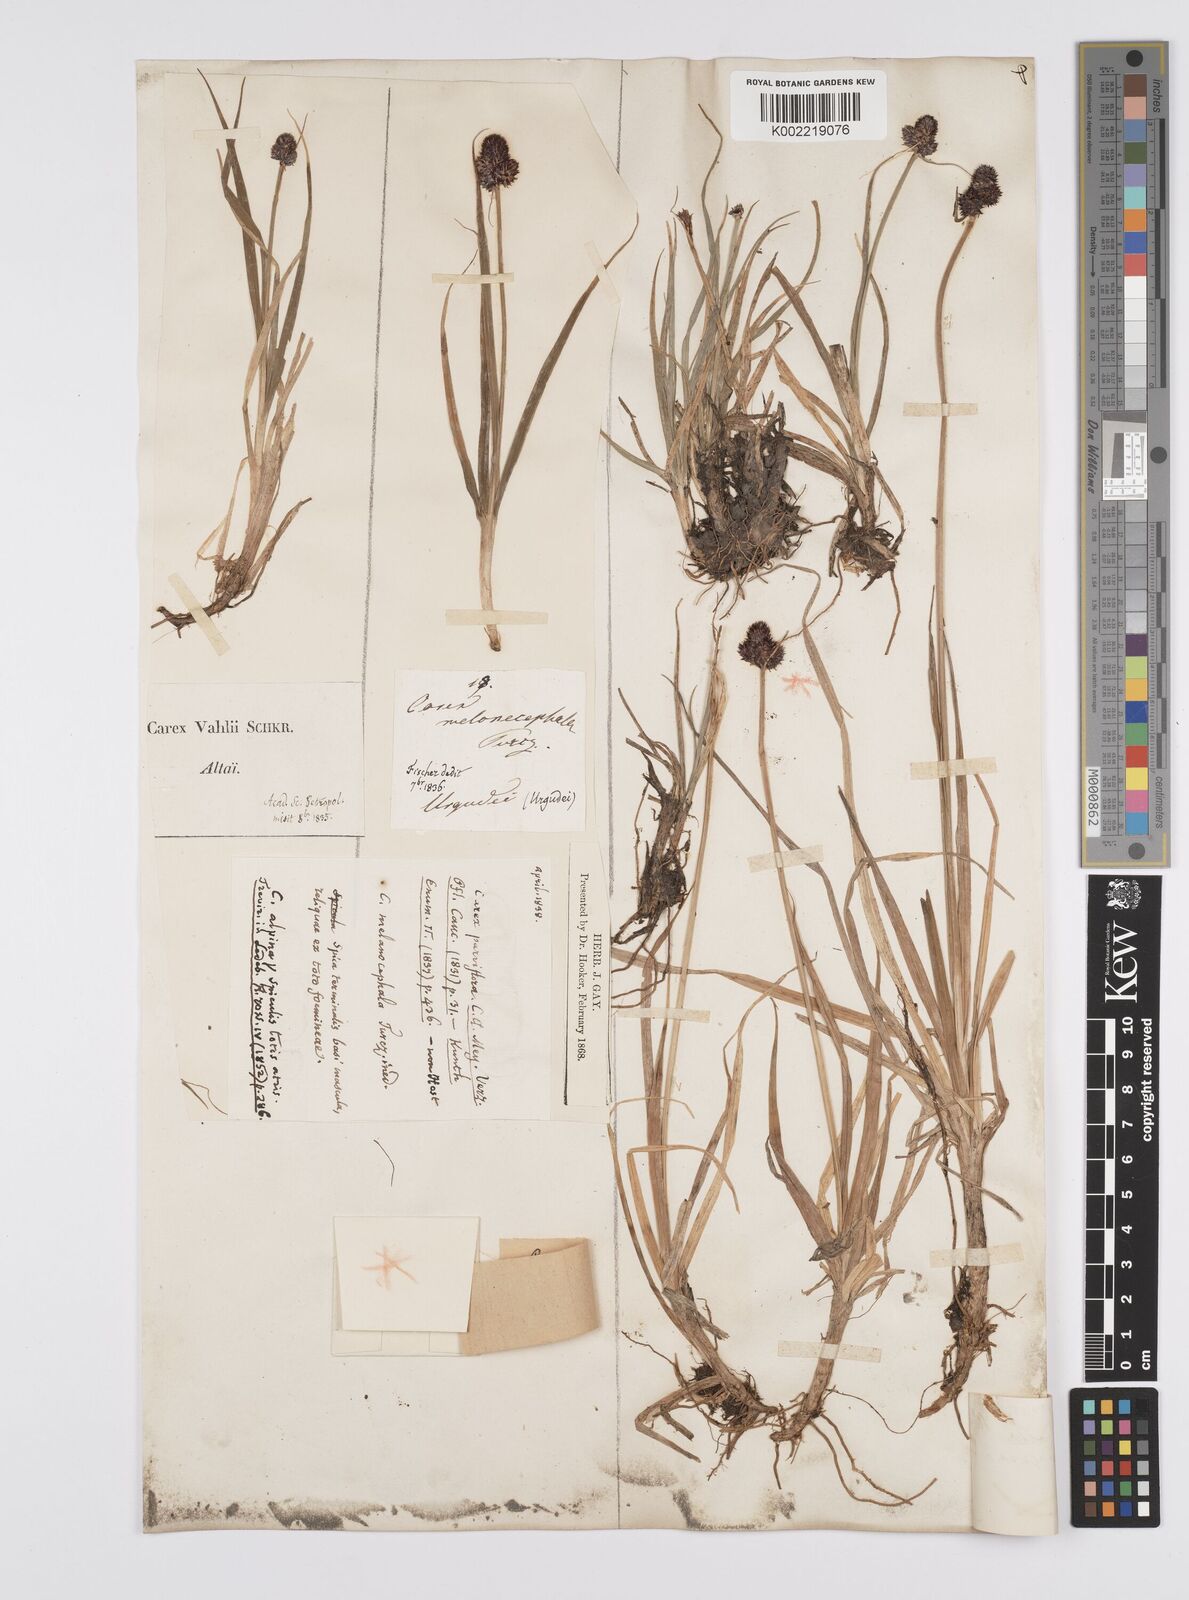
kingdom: Plantae
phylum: Tracheophyta
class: Liliopsida
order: Poales
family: Cyperaceae
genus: Carex
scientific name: Carex oligantha
